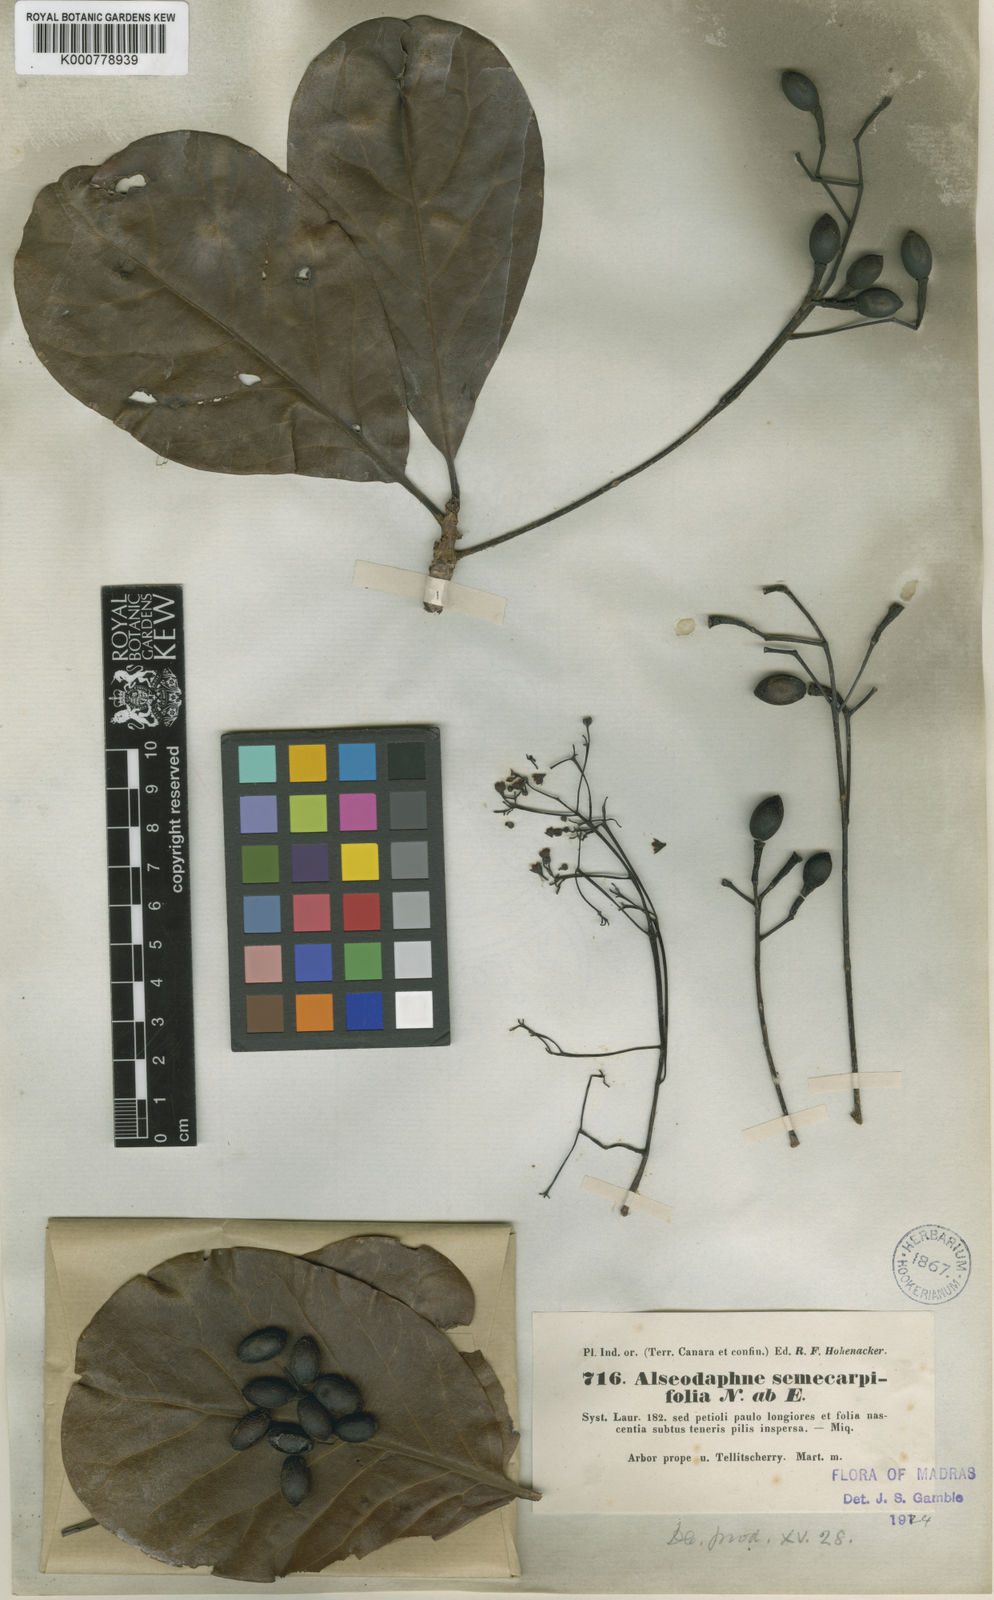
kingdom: Plantae
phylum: Tracheophyta
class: Magnoliopsida
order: Laurales
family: Lauraceae
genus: Alseodaphne
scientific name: Alseodaphne semecarpifolia
